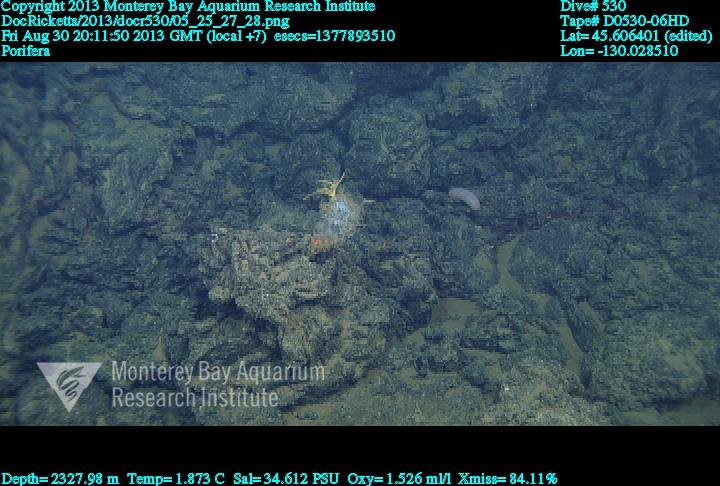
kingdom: Animalia
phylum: Porifera
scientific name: Porifera
